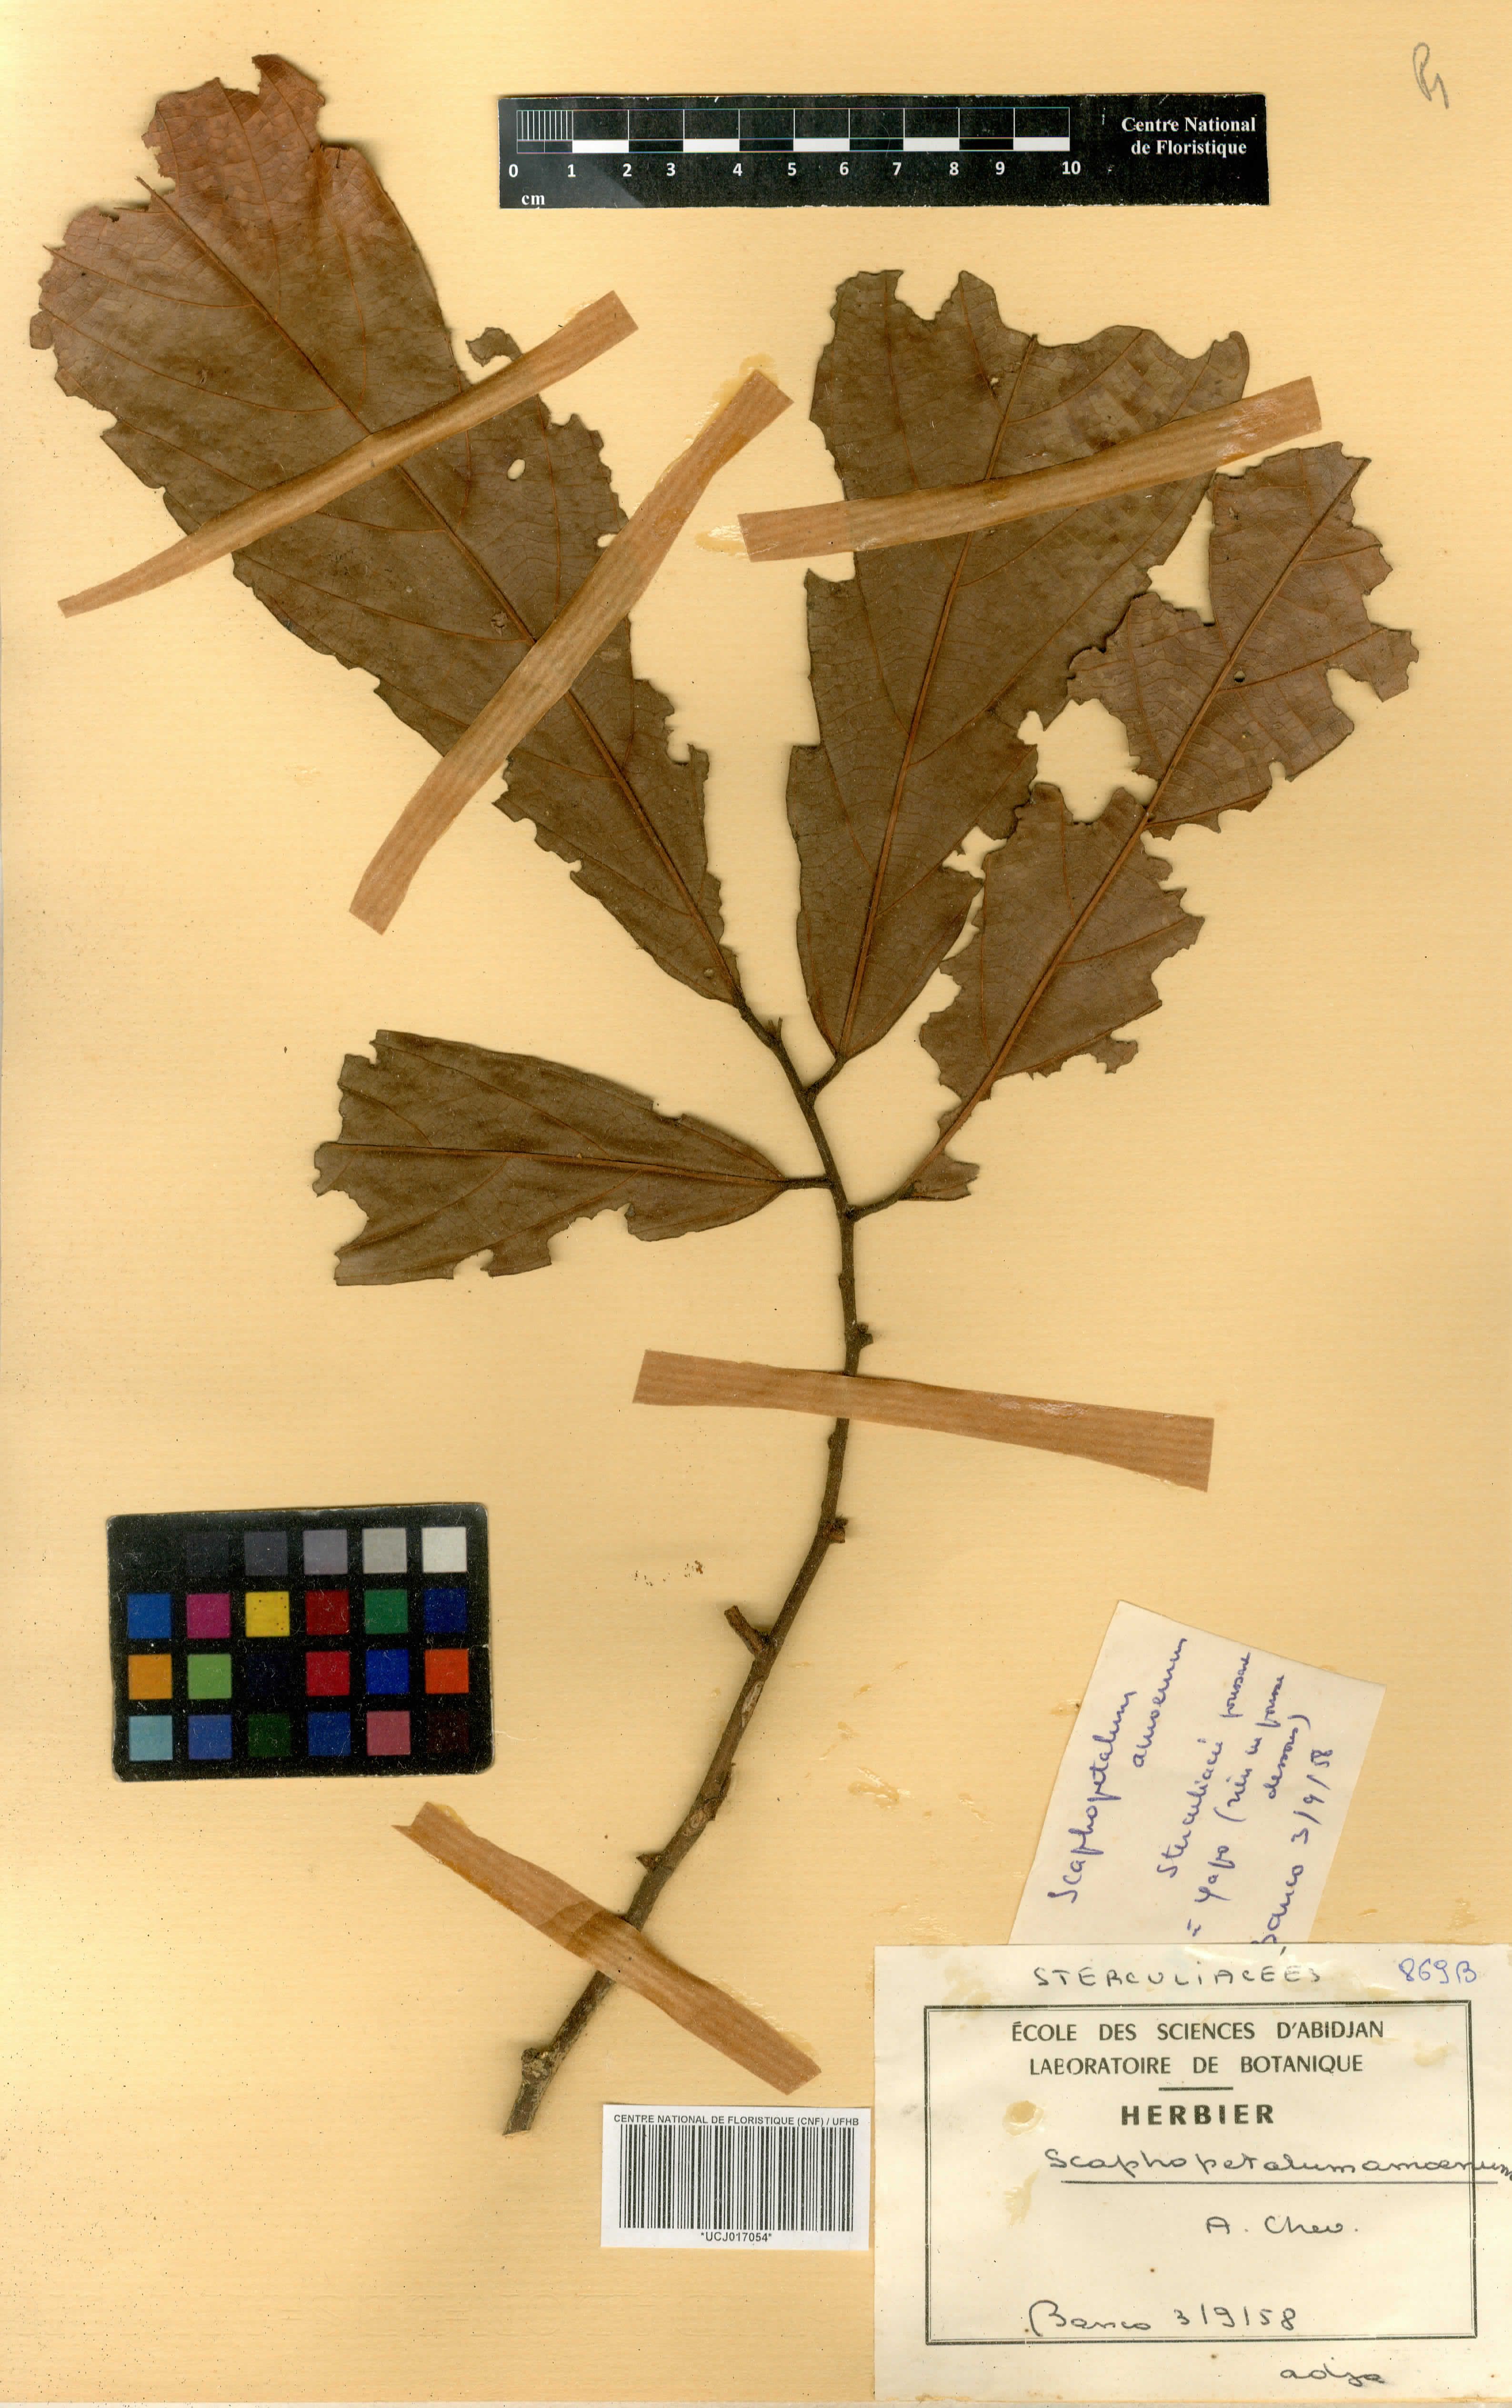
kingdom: Plantae
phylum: Tracheophyta
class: Magnoliopsida
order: Malvales
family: Malvaceae
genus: Scaphopetalum
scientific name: Scaphopetalum amoenum
